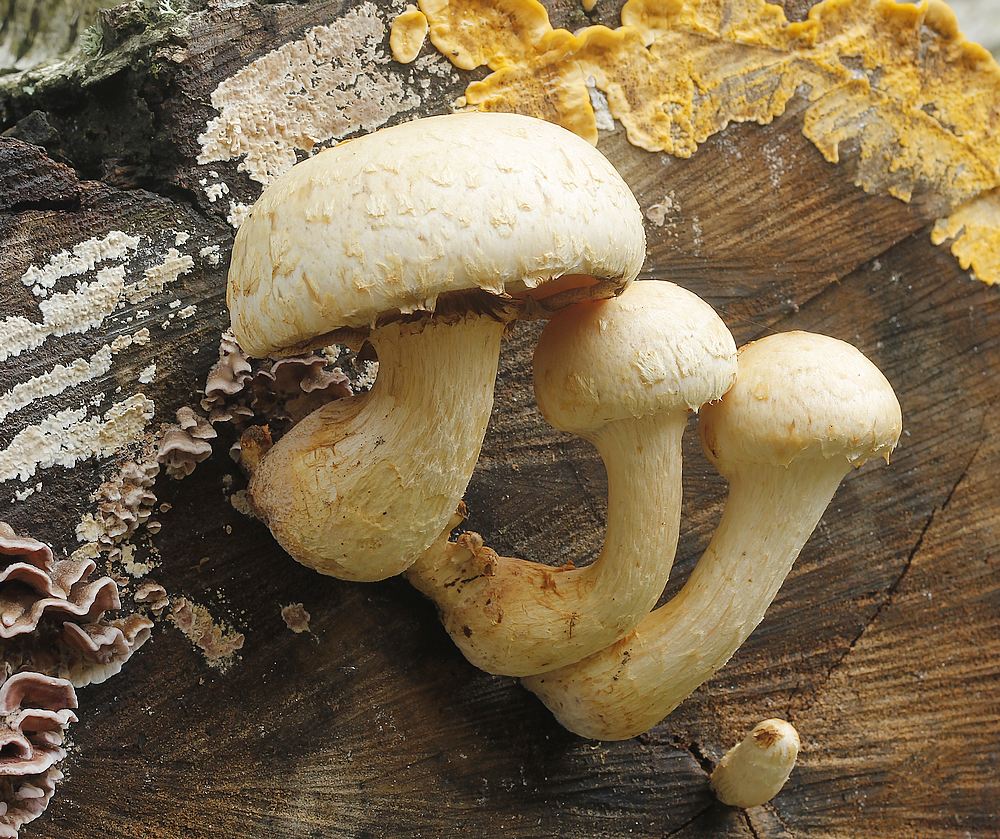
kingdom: Fungi
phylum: Basidiomycota
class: Agaricomycetes
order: Agaricales
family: Strophariaceae
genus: Pholiota
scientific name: Pholiota heteroclita
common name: duftende kæmpeskælhat
